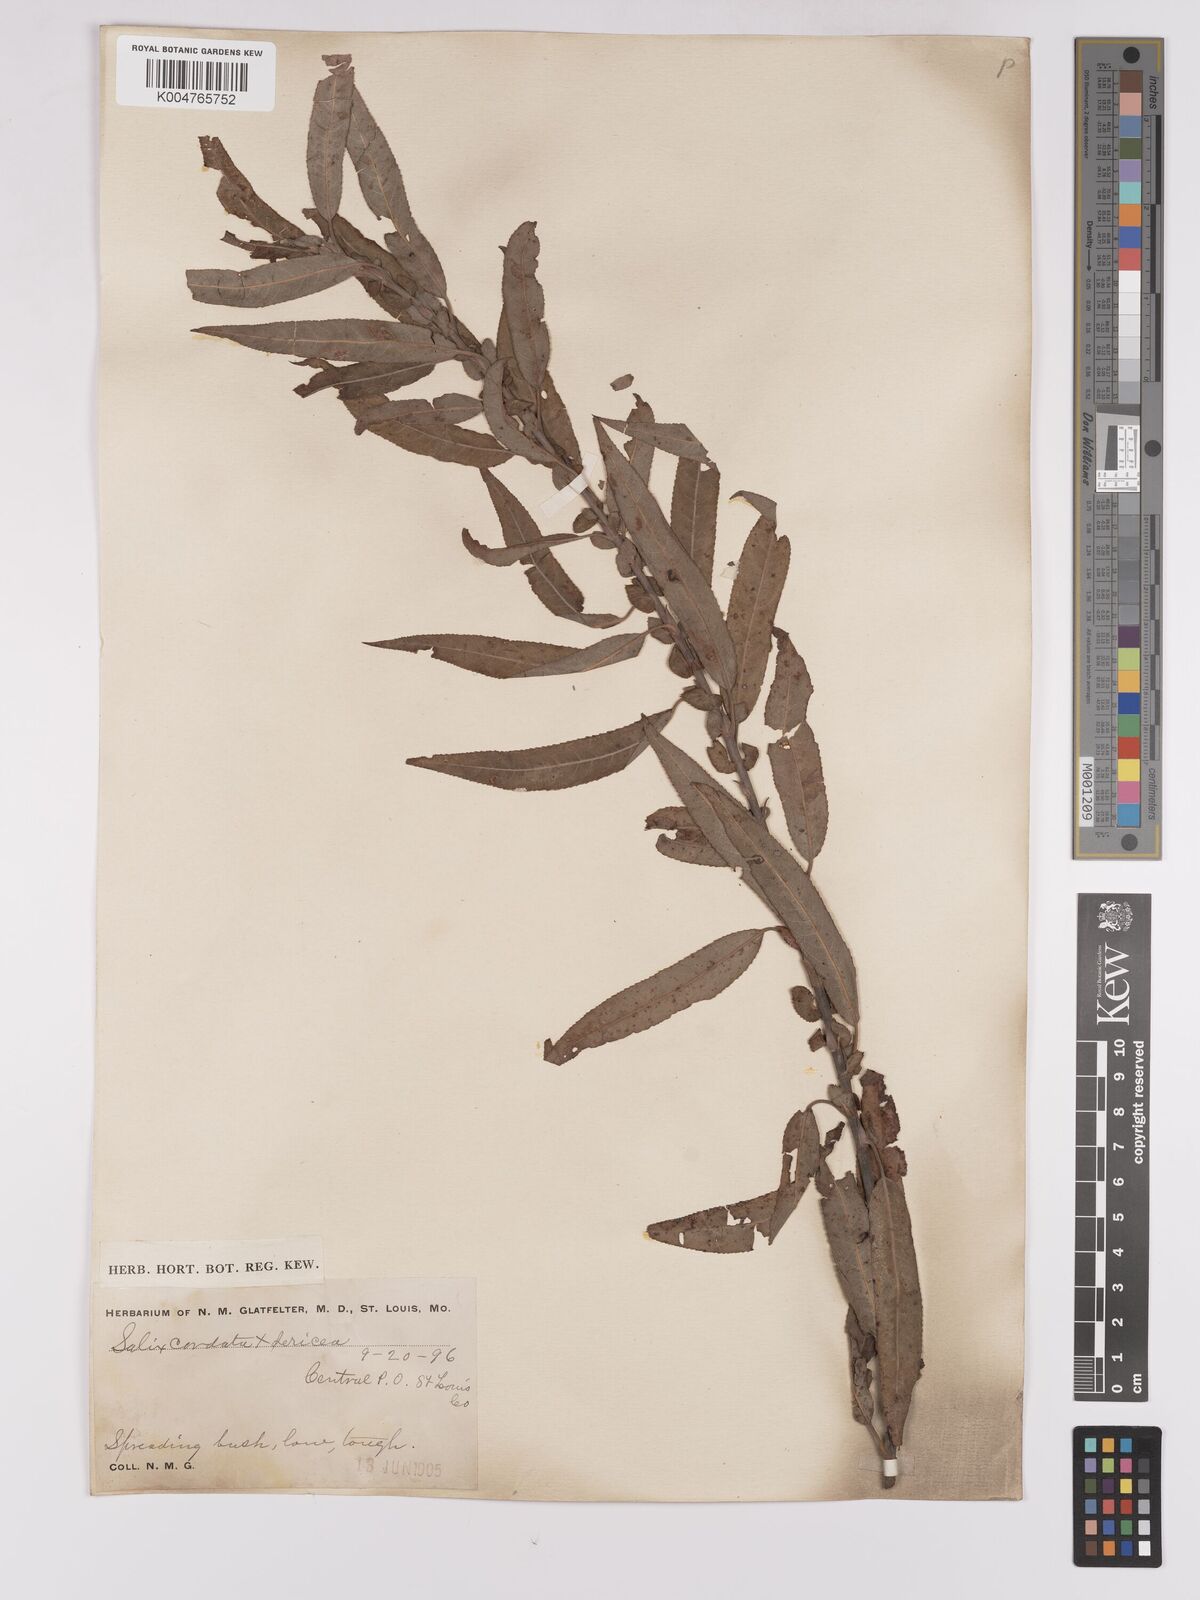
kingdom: Plantae
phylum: Tracheophyta
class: Magnoliopsida
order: Malpighiales
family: Salicaceae
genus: Salix
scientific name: Salix cordata
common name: Heart-leaf willow
